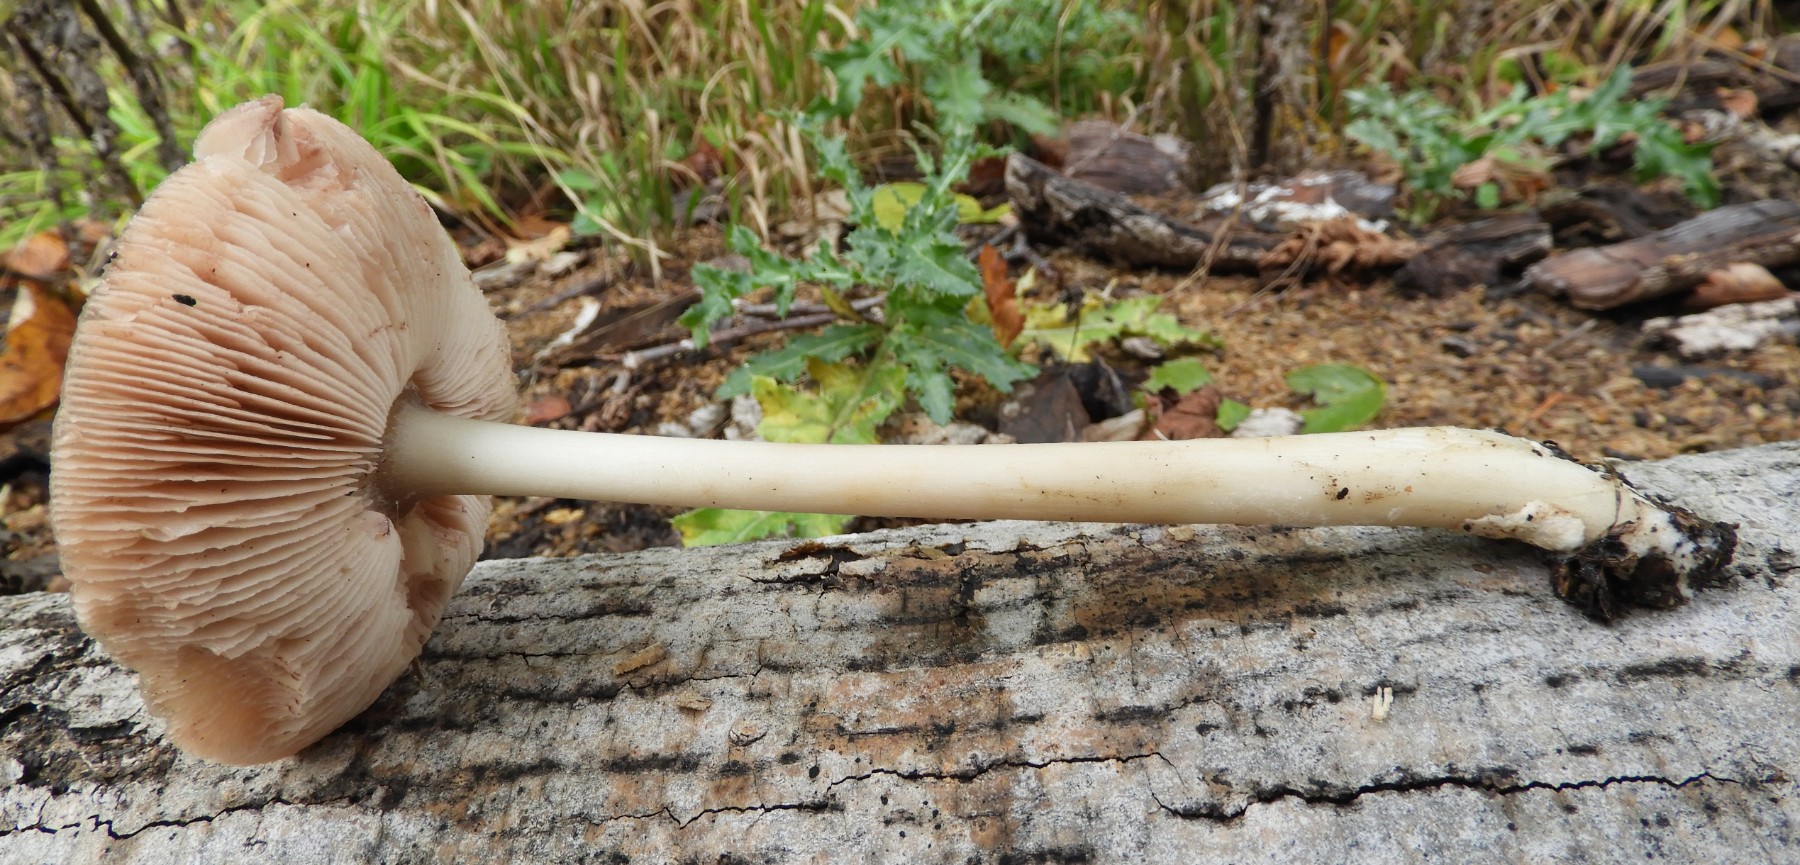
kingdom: Fungi
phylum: Basidiomycota
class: Agaricomycetes
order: Agaricales
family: Pluteaceae
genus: Pluteus
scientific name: Pluteus
